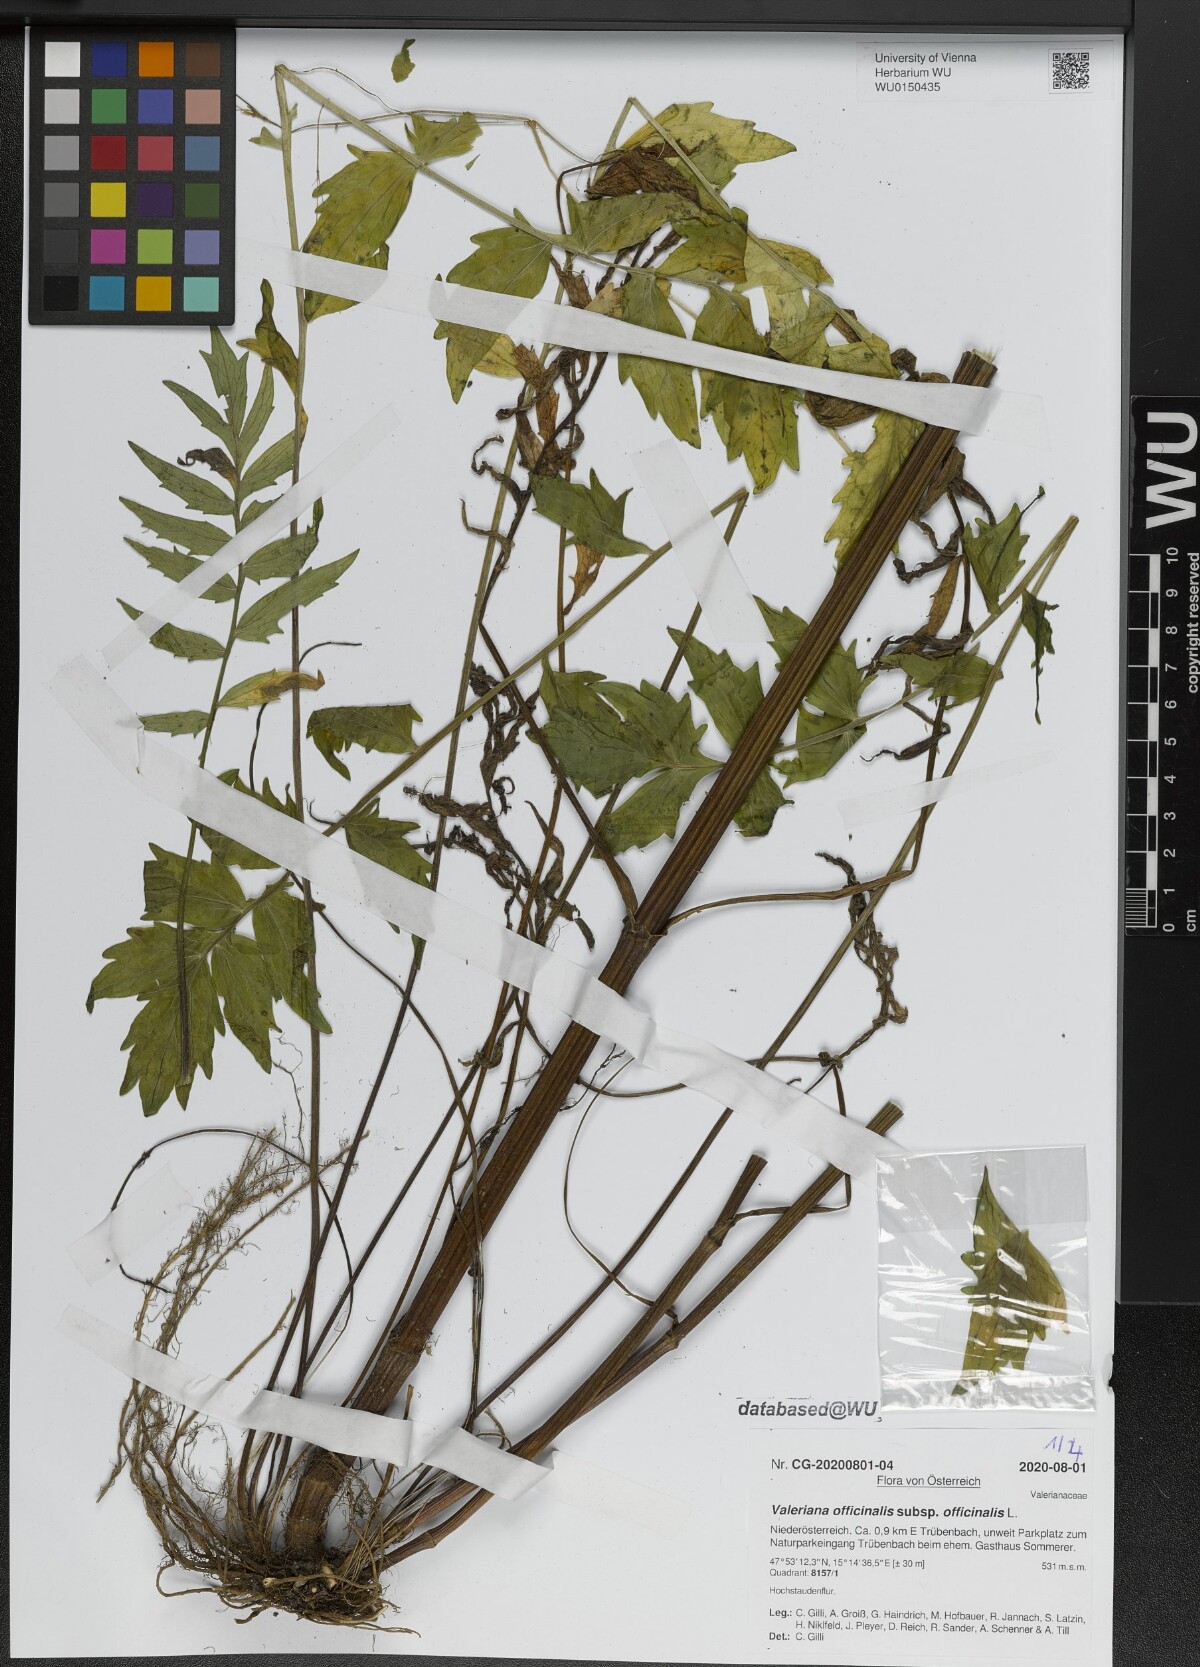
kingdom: Plantae
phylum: Tracheophyta
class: Magnoliopsida
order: Dipsacales
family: Caprifoliaceae
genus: Valeriana
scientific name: Valeriana officinalis
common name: Common valerian
